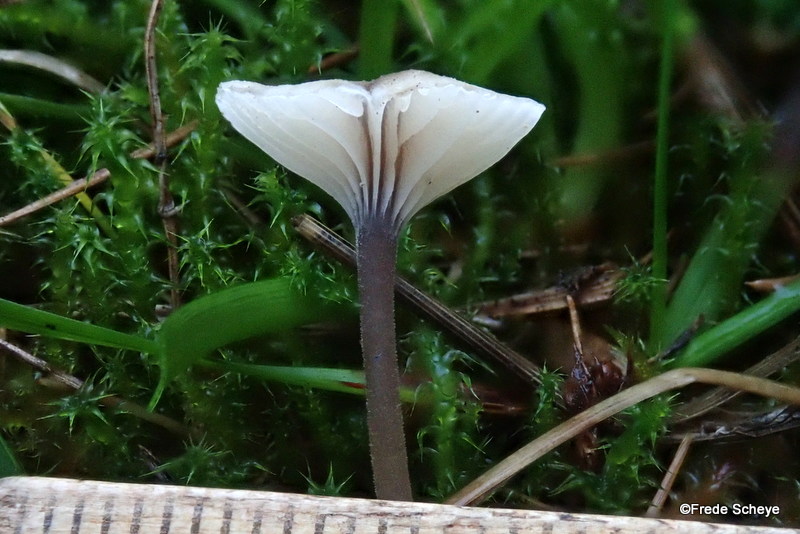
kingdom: Fungi
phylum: Basidiomycota
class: Agaricomycetes
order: Hymenochaetales
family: Rickenellaceae
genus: Rickenella
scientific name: Rickenella swartzii
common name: finstokket mosnavlehat
